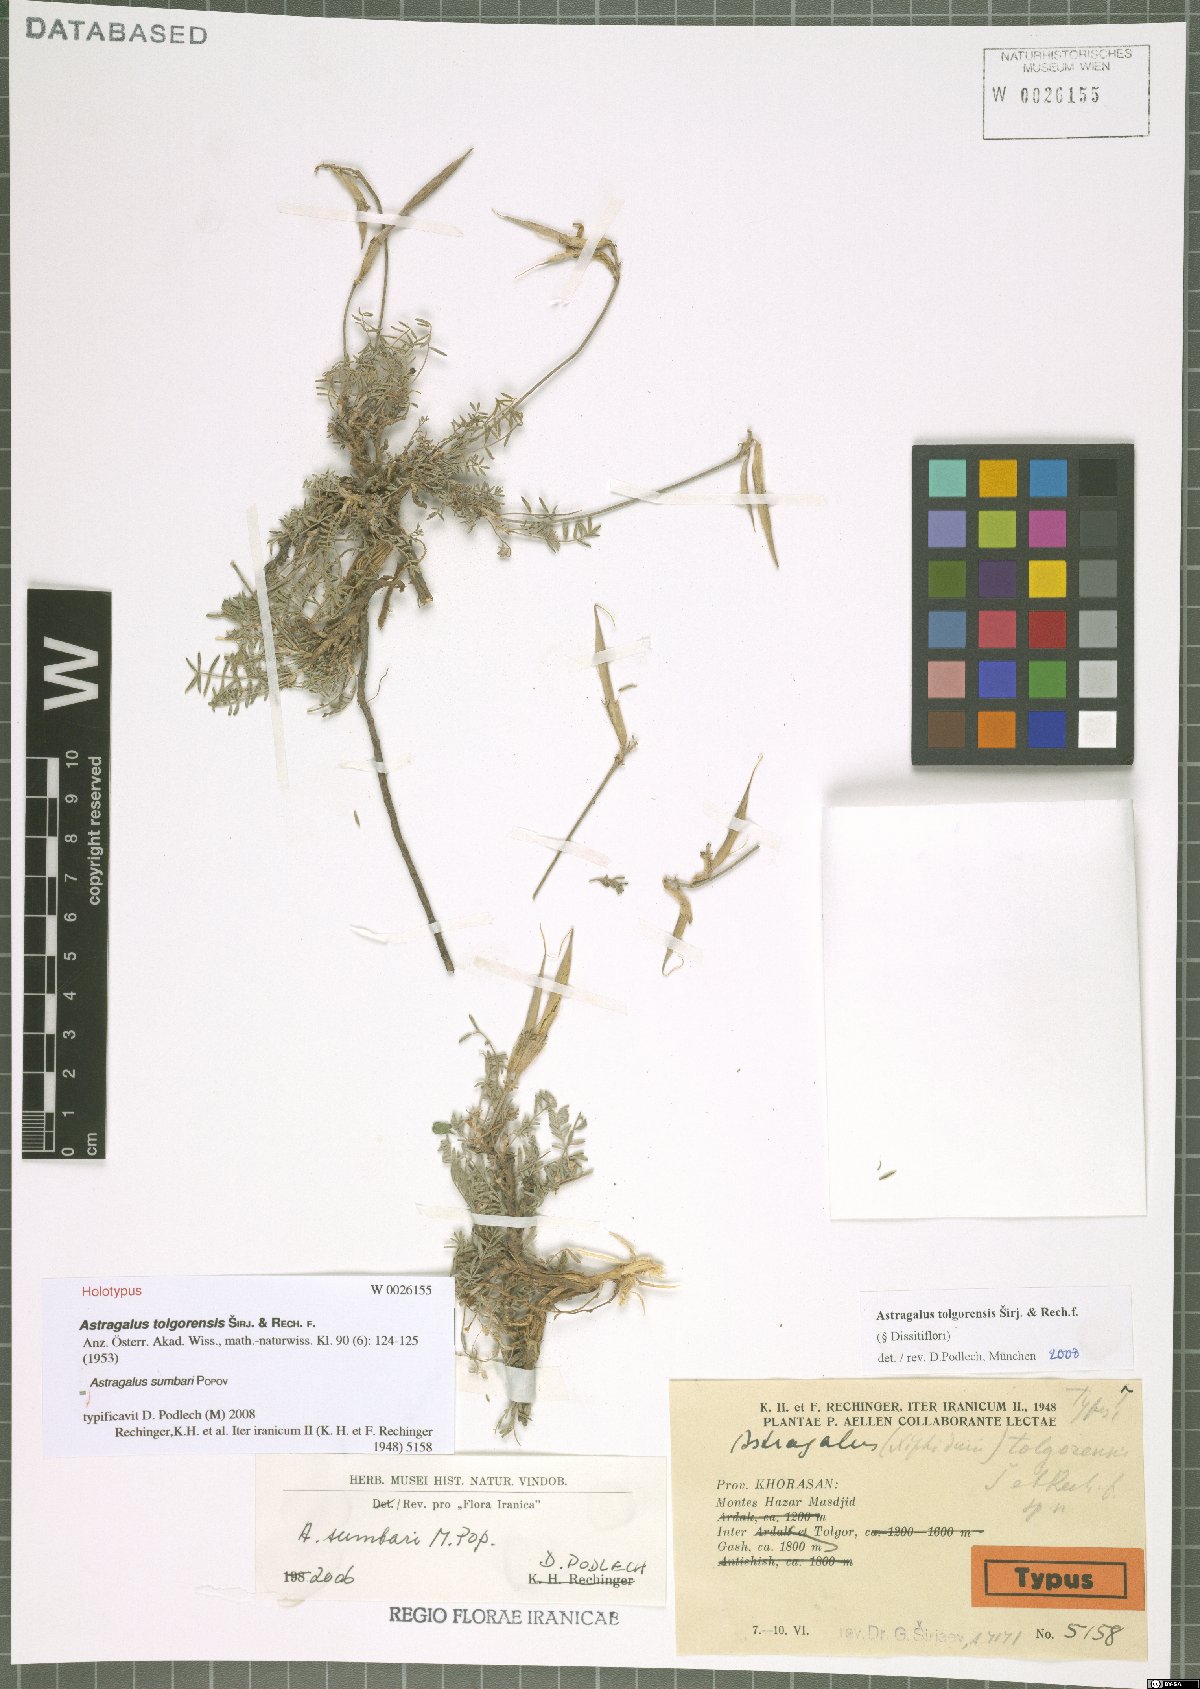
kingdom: Plantae
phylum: Tracheophyta
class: Magnoliopsida
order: Fabales
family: Fabaceae
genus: Astragalus
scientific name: Astragalus sumbari
